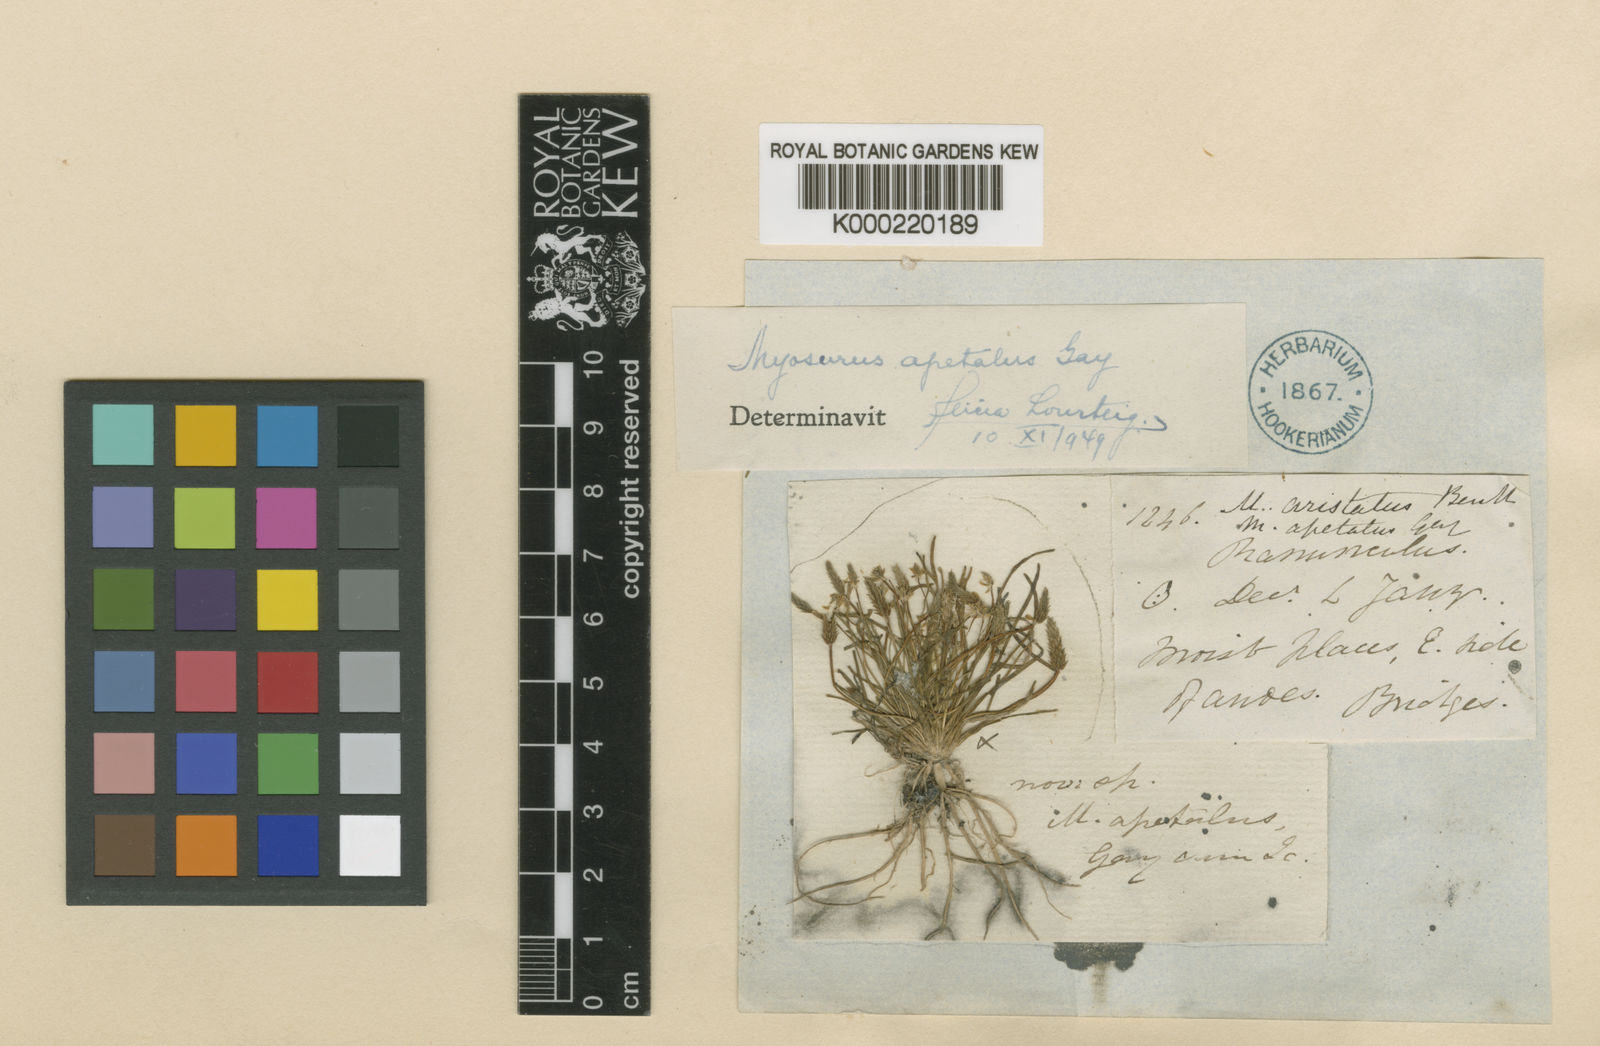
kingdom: Plantae
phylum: Tracheophyta
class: Magnoliopsida
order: Ranunculales
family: Ranunculaceae
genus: Myosurus
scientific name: Myosurus
